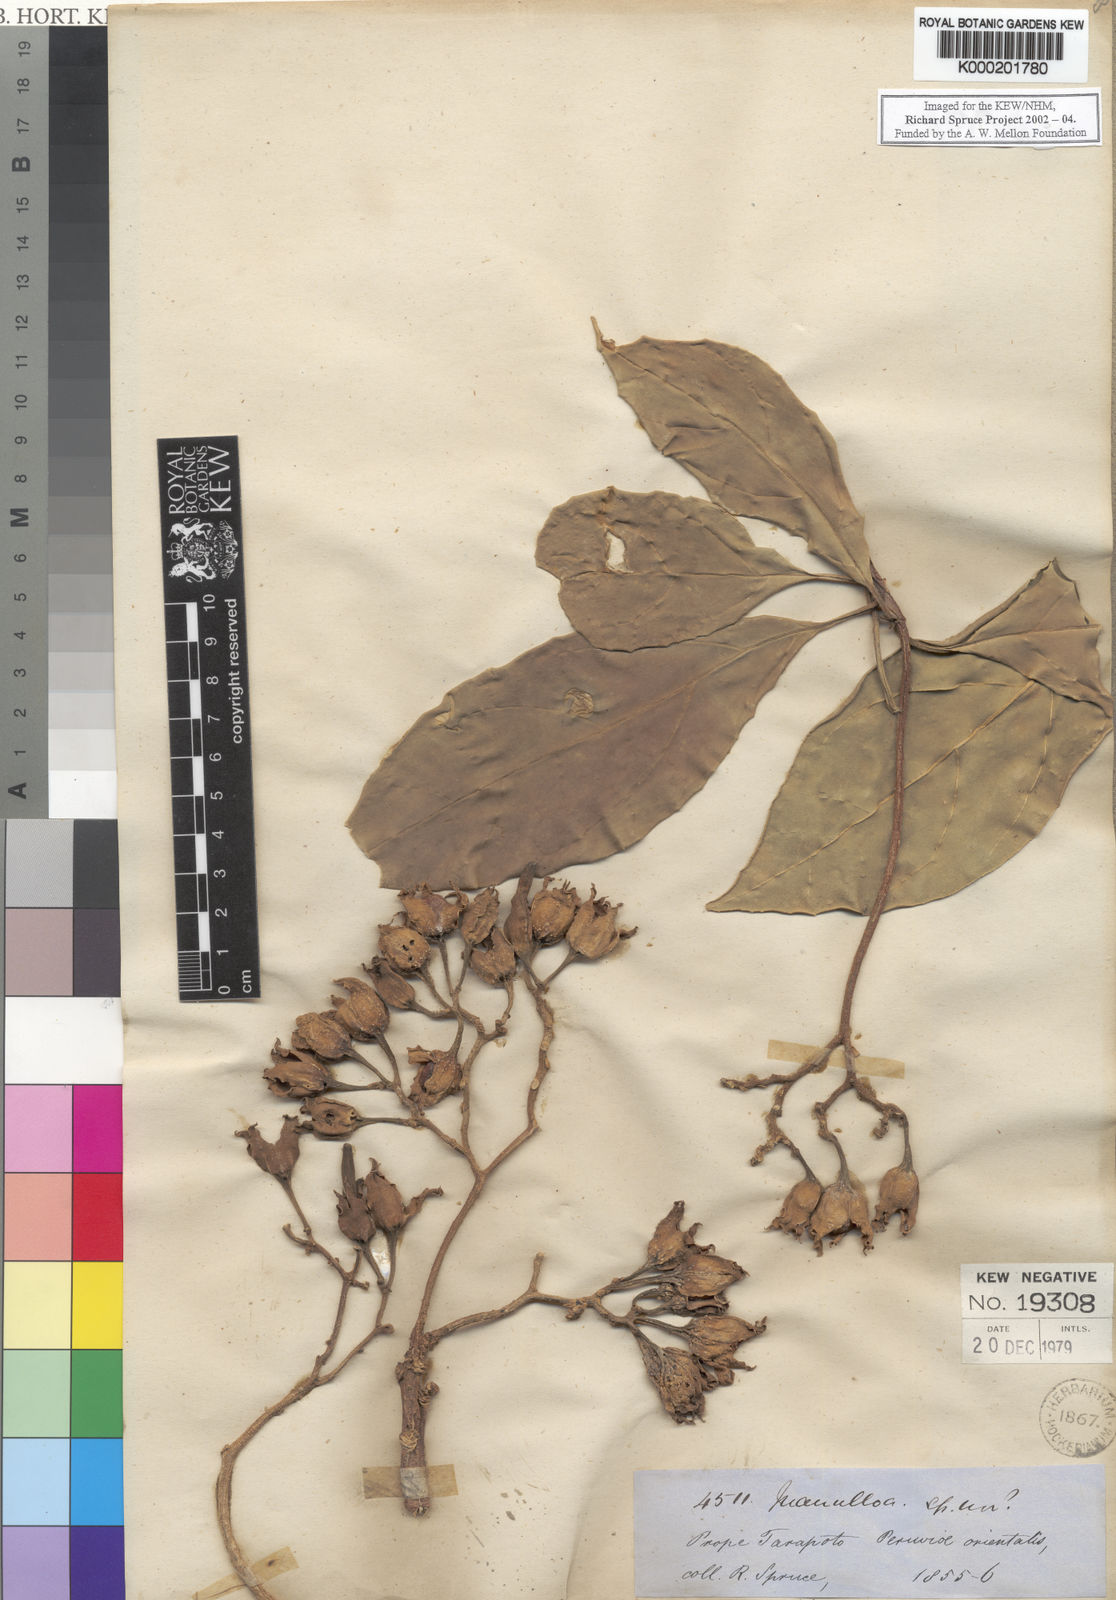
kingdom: Plantae
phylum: Tracheophyta
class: Magnoliopsida
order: Solanales
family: Solanaceae
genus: Juanulloa
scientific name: Juanulloa parasitica
